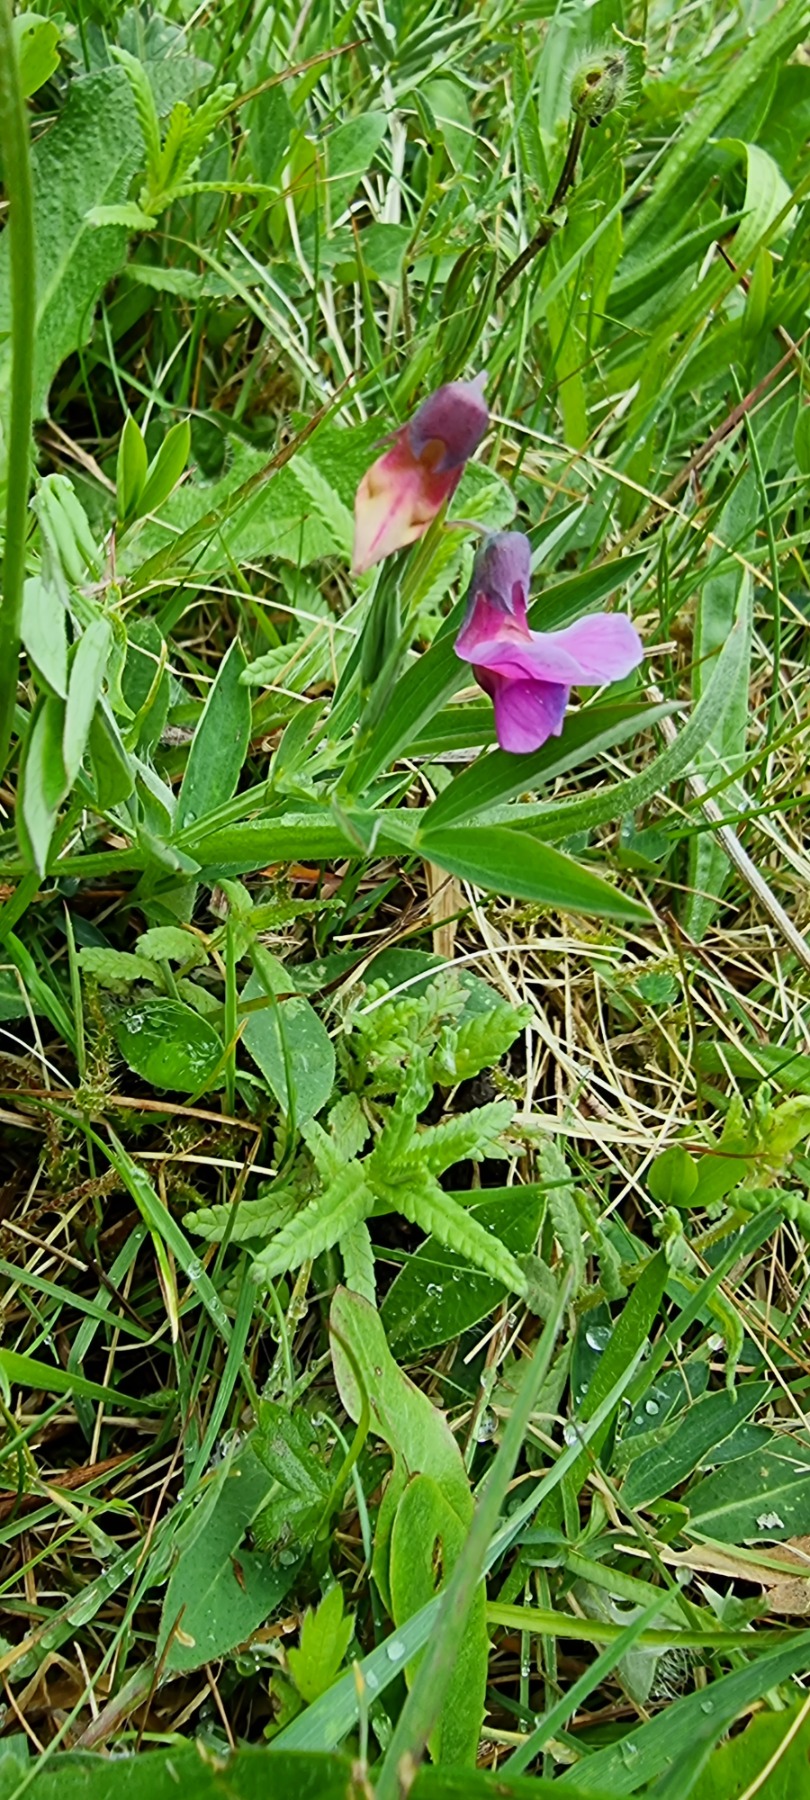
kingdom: Plantae
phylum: Tracheophyta
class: Magnoliopsida
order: Fabales
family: Fabaceae
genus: Lathyrus
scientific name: Lathyrus linifolius
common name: Krat-fladbælg
